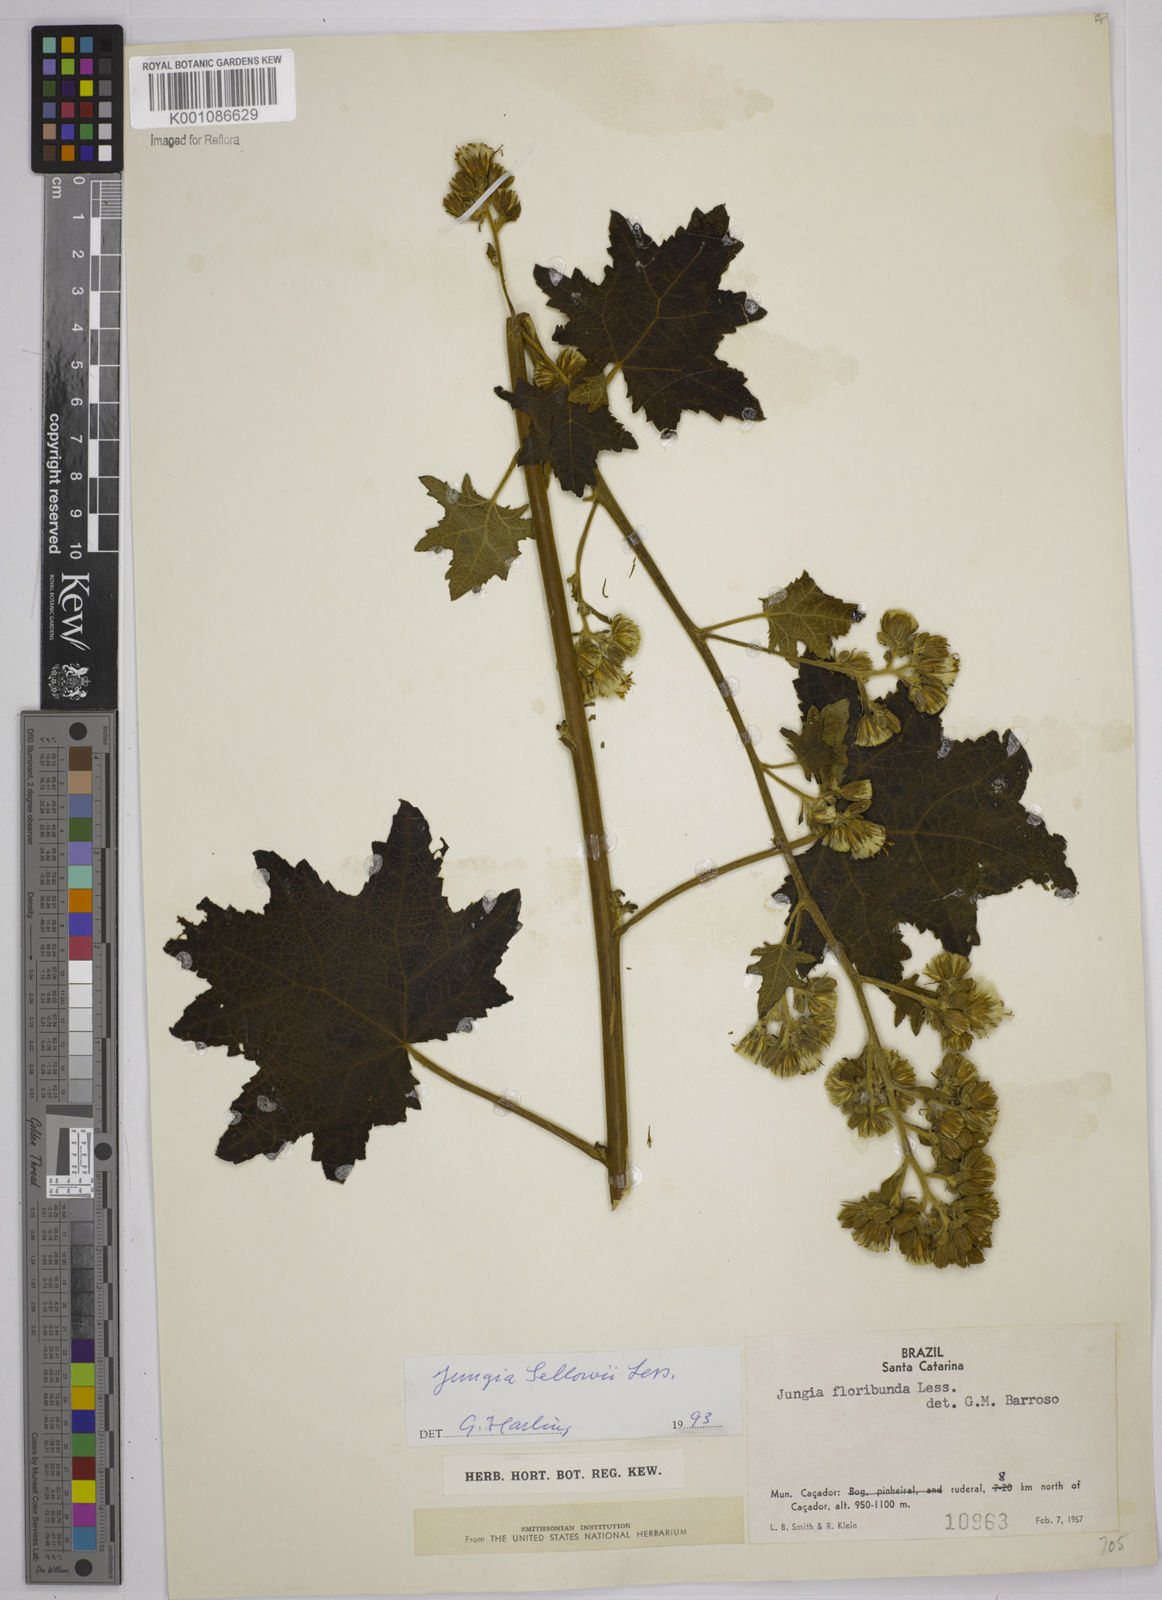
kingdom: Plantae
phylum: Tracheophyta
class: Magnoliopsida
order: Asterales
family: Asteraceae
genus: Jungia
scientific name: Jungia sellowii
